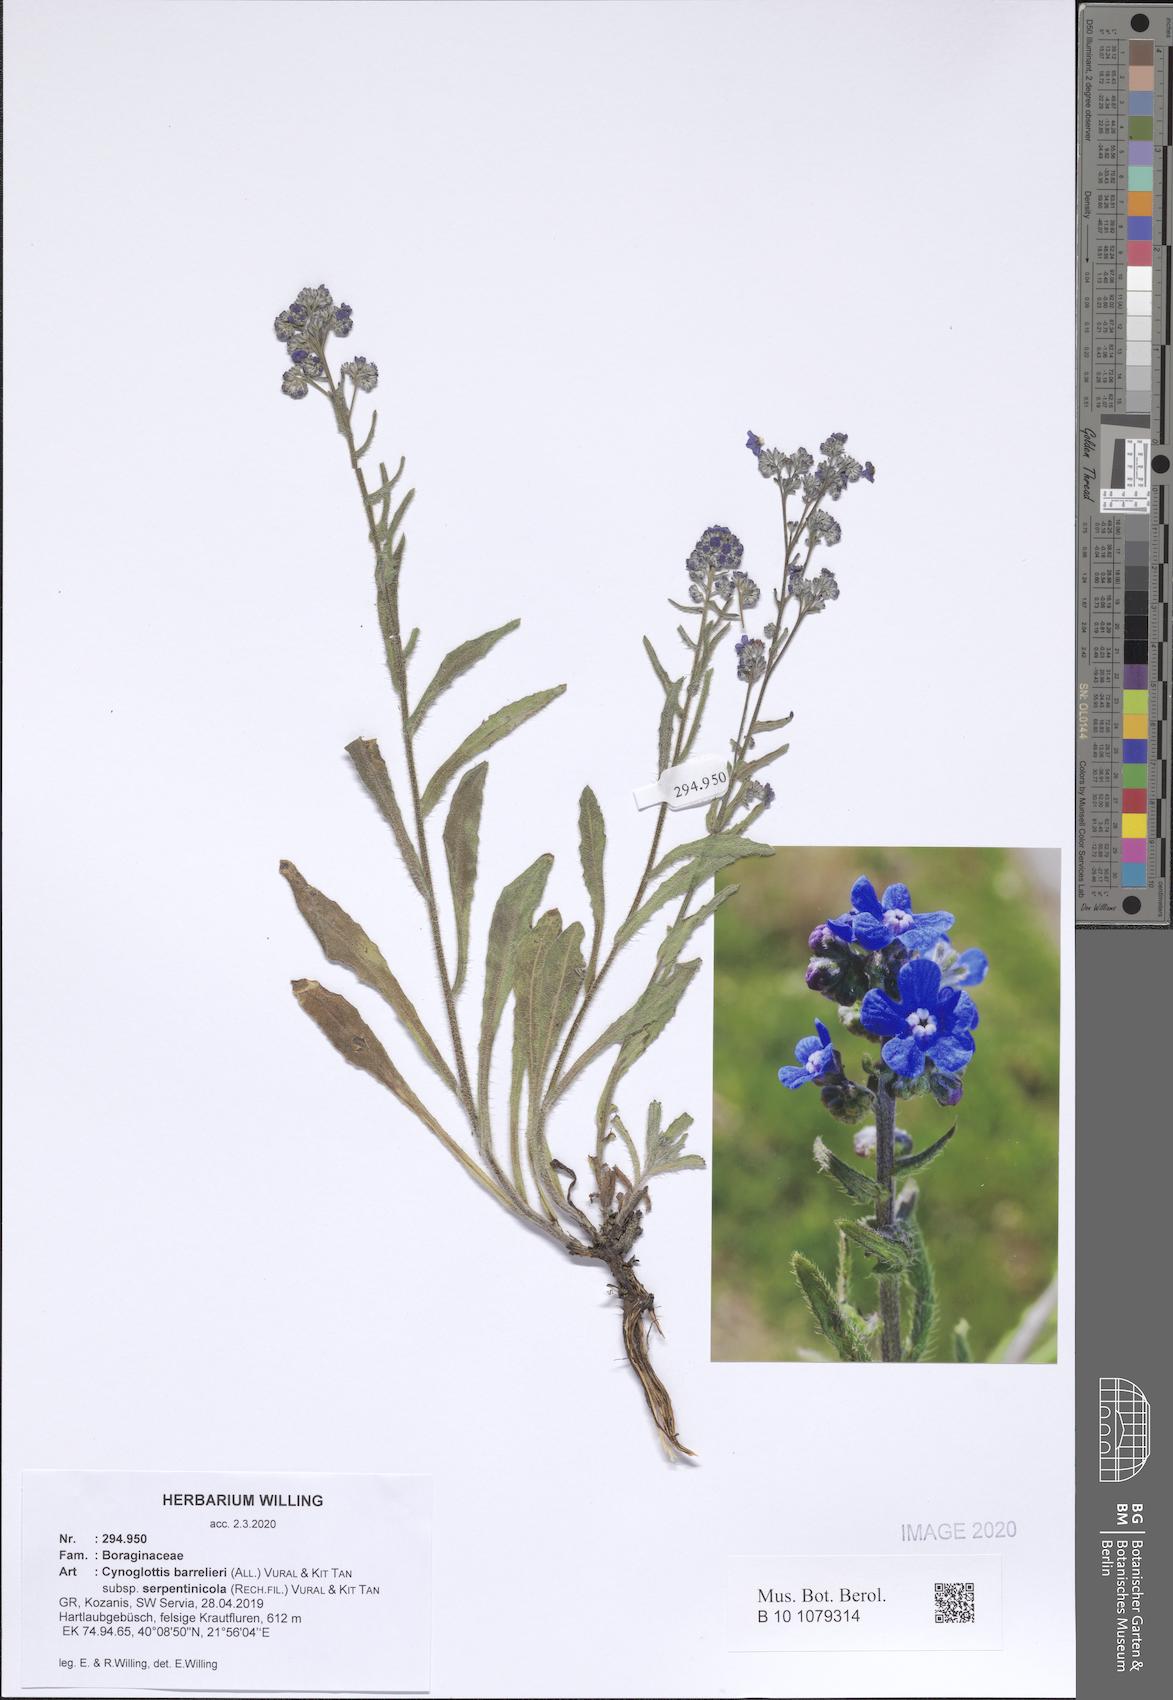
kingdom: Plantae
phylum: Tracheophyta
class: Magnoliopsida
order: Boraginales
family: Boraginaceae
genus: Cynoglottis
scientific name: Cynoglottis barrelieri
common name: False alkanet
